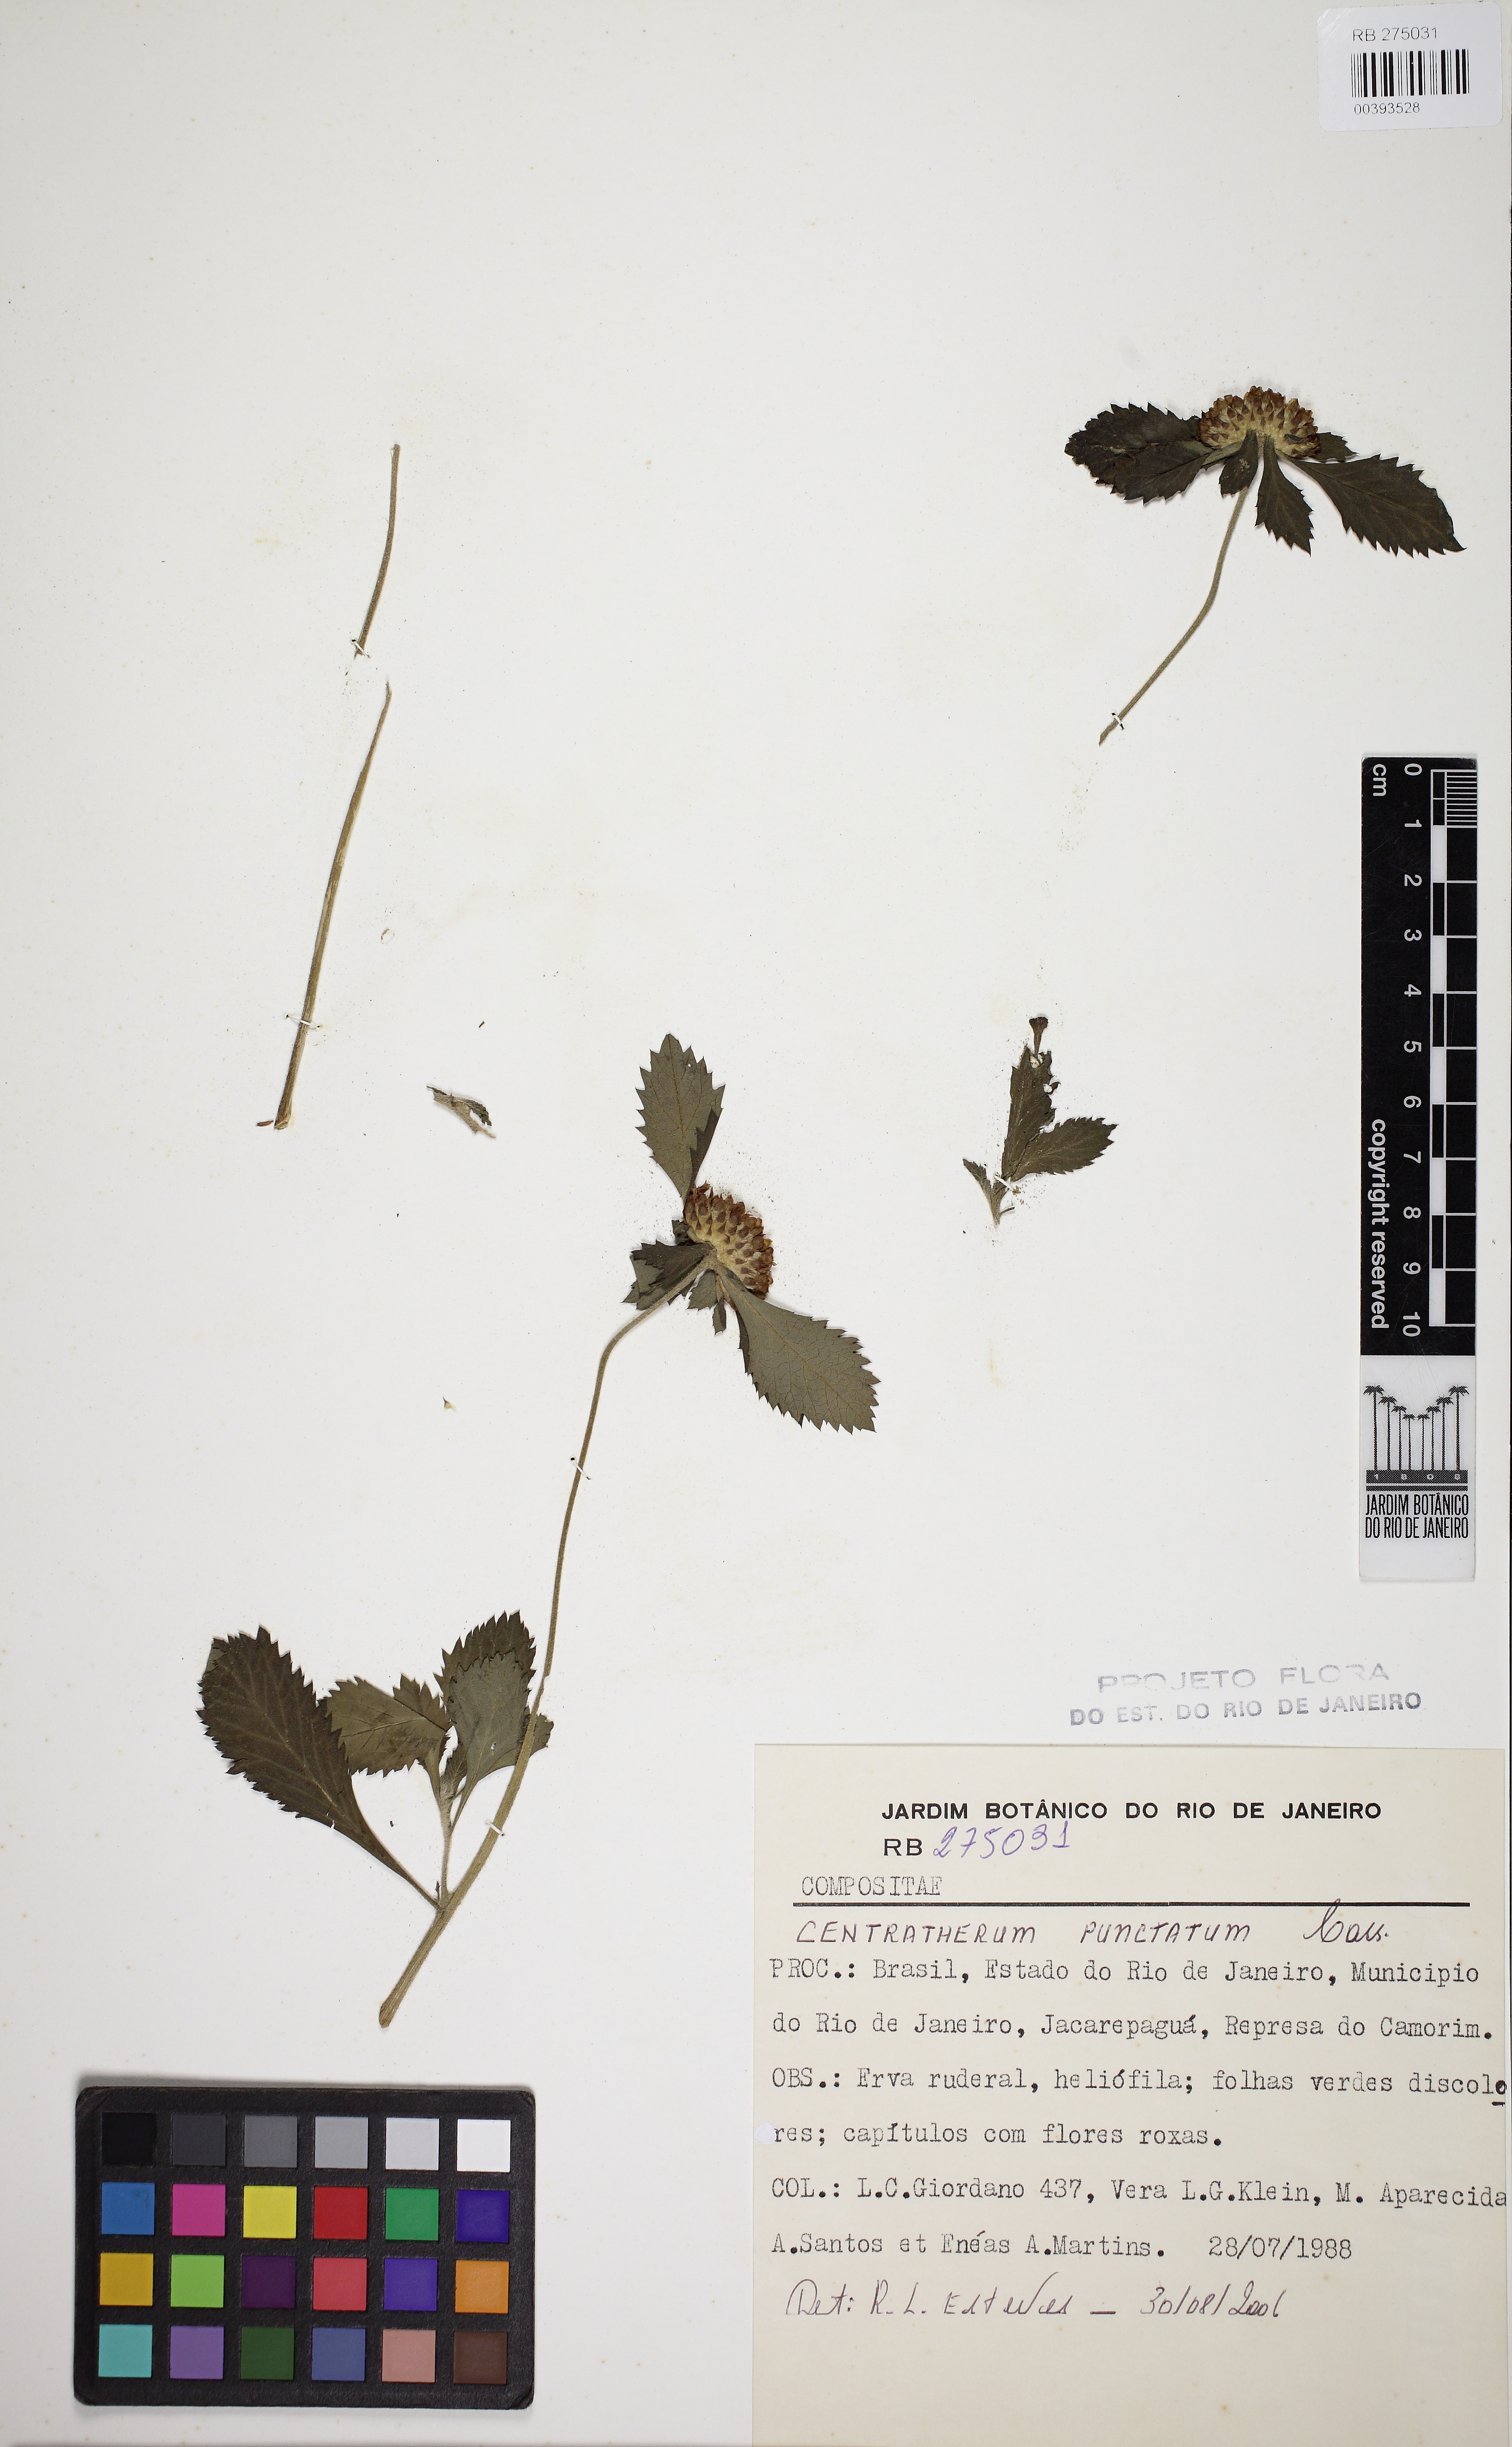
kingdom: Plantae
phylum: Tracheophyta
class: Magnoliopsida
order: Asterales
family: Asteraceae
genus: Centratherum
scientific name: Centratherum punctatum
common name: Larkdaisy
